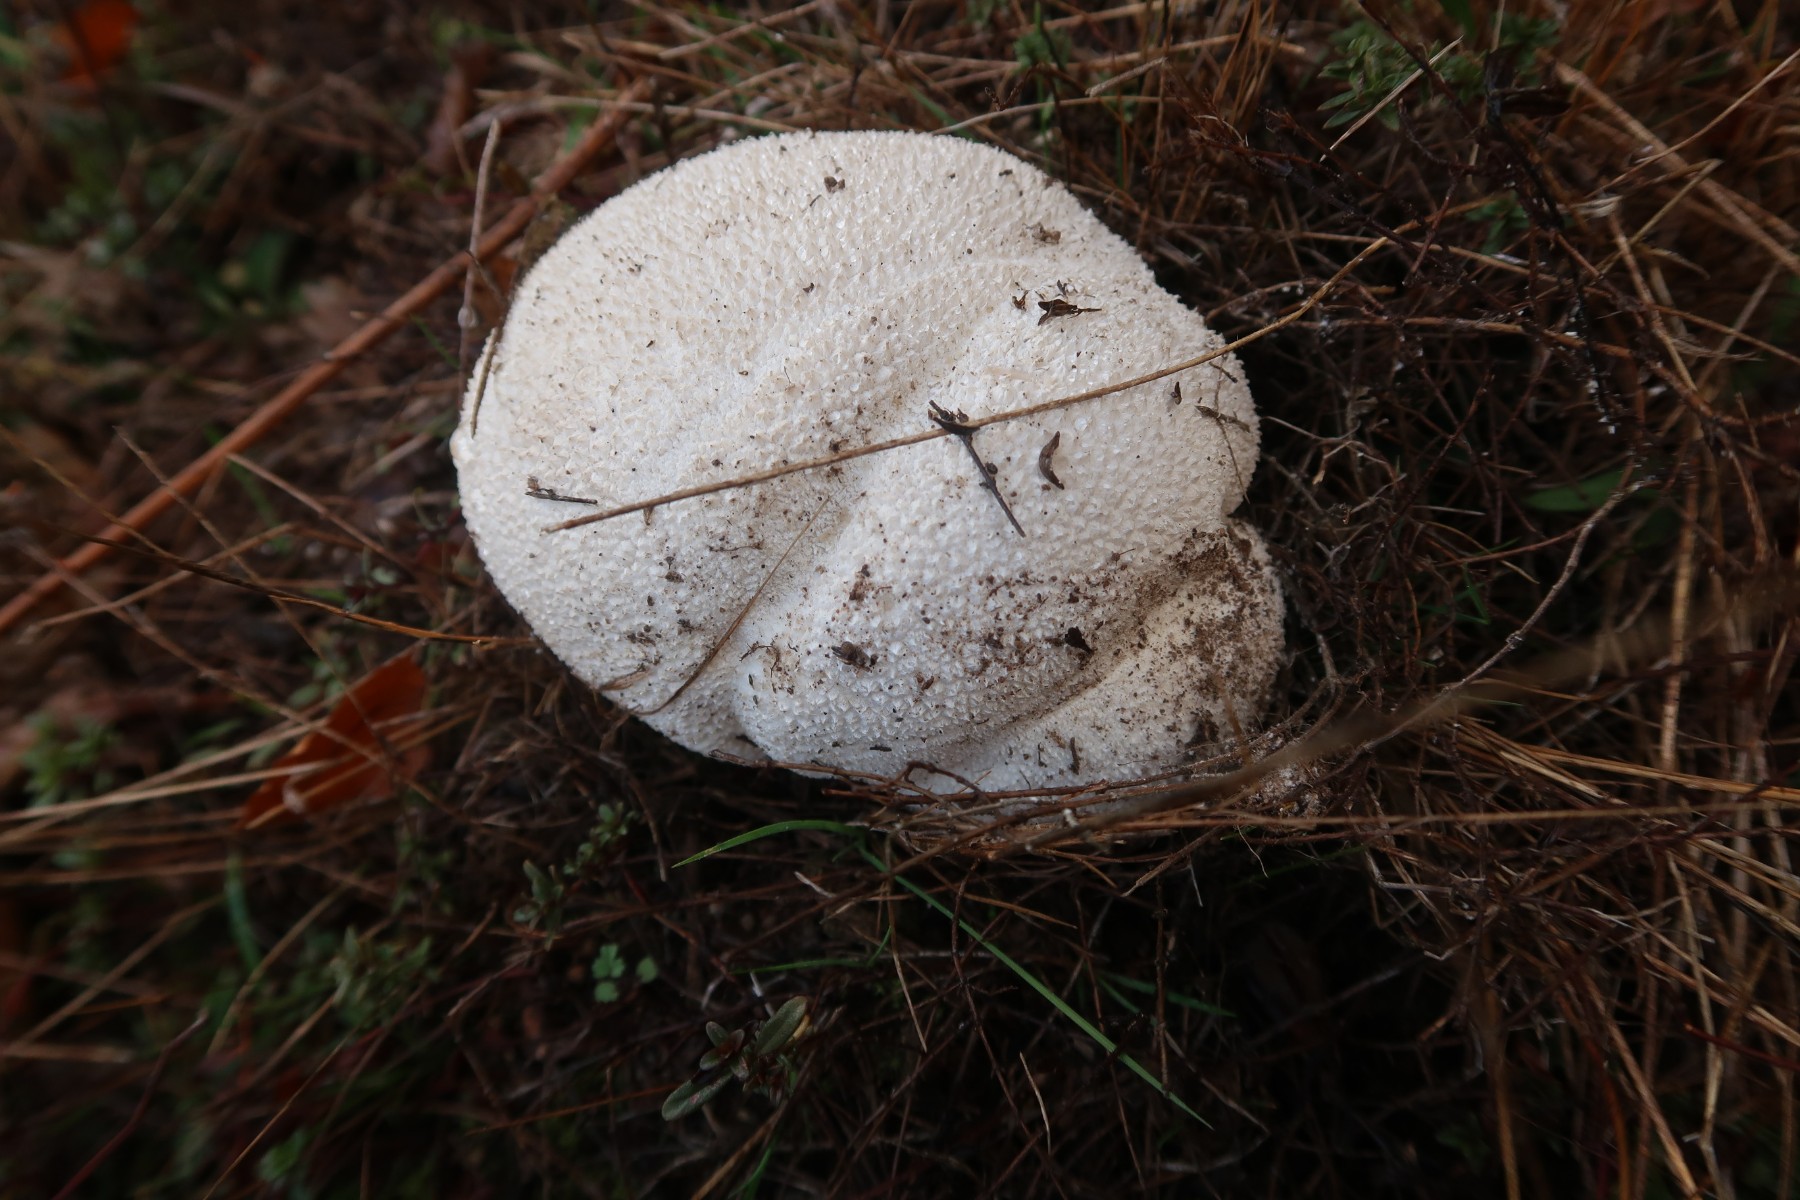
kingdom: Fungi
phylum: Basidiomycota
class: Agaricomycetes
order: Agaricales
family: Lycoperdaceae
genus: Bovistella
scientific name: Bovistella utriformis
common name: skællet støvbold
